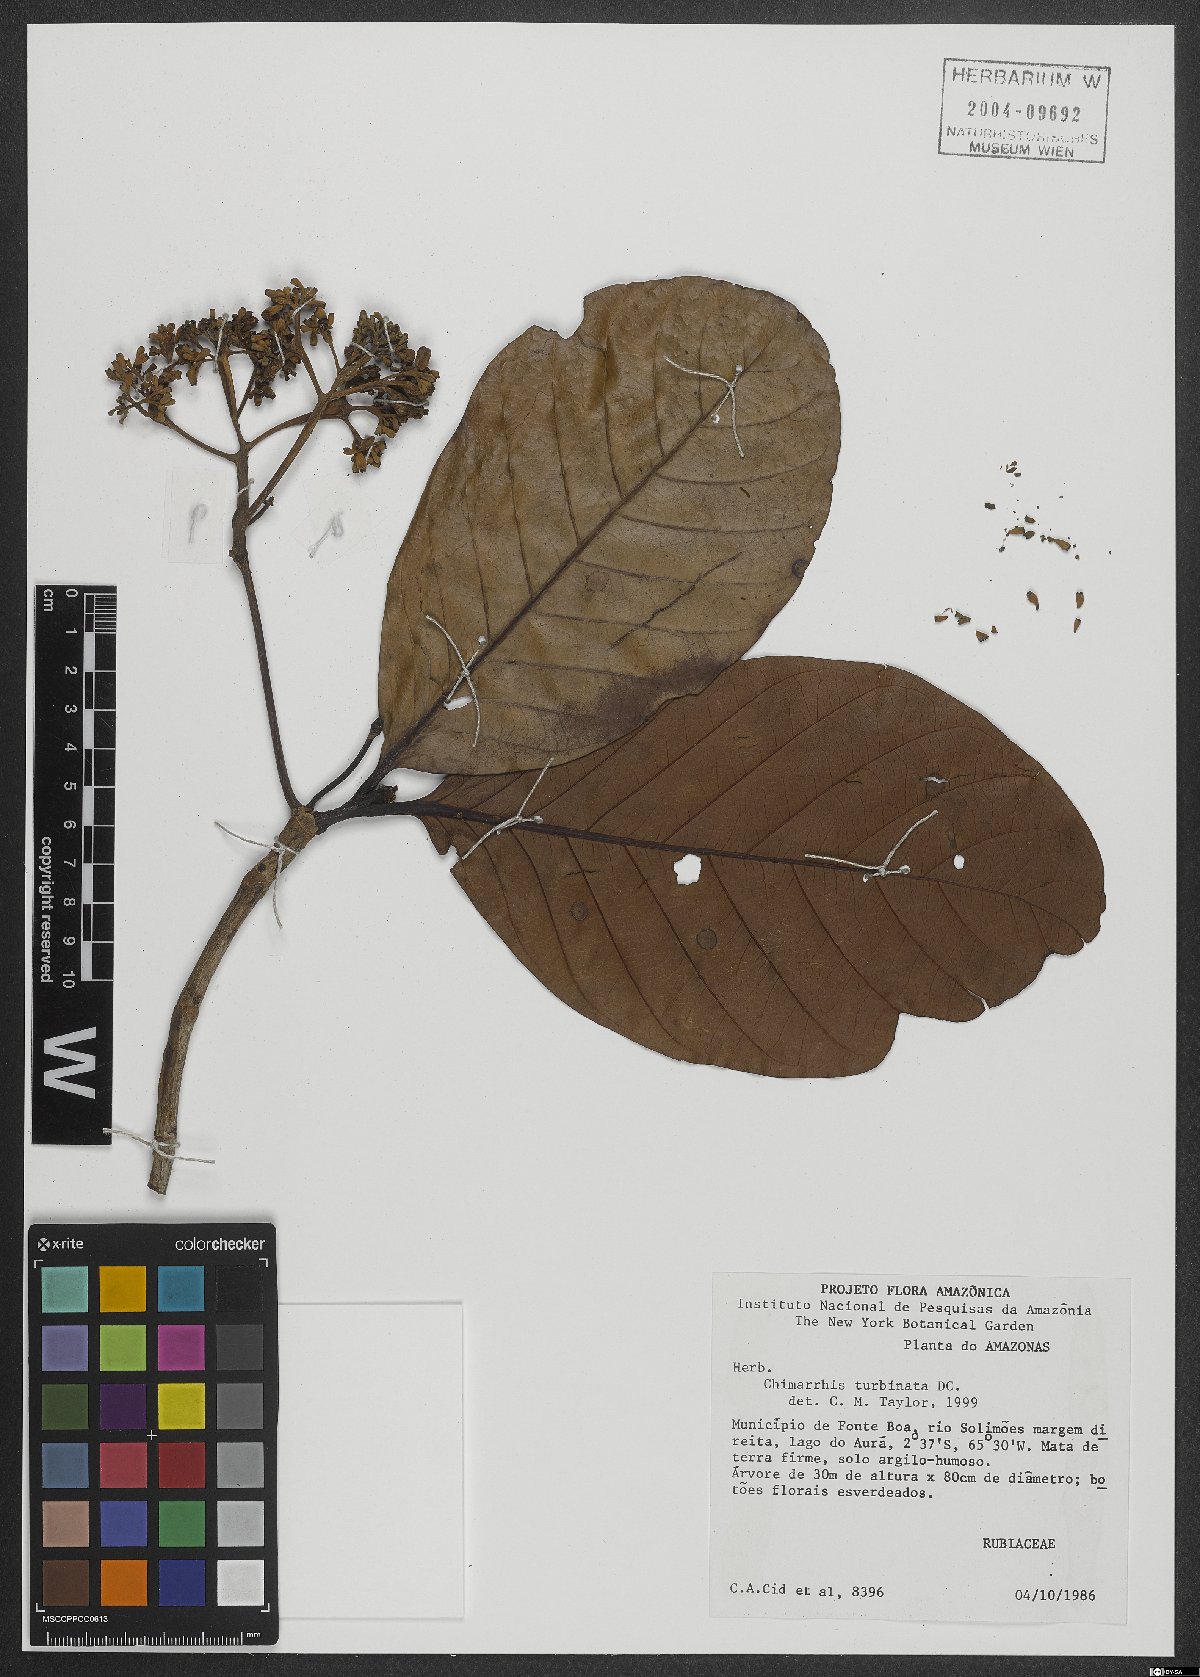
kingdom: Plantae
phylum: Tracheophyta
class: Magnoliopsida
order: Gentianales
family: Rubiaceae
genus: Chimarrhis
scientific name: Chimarrhis turbinata
